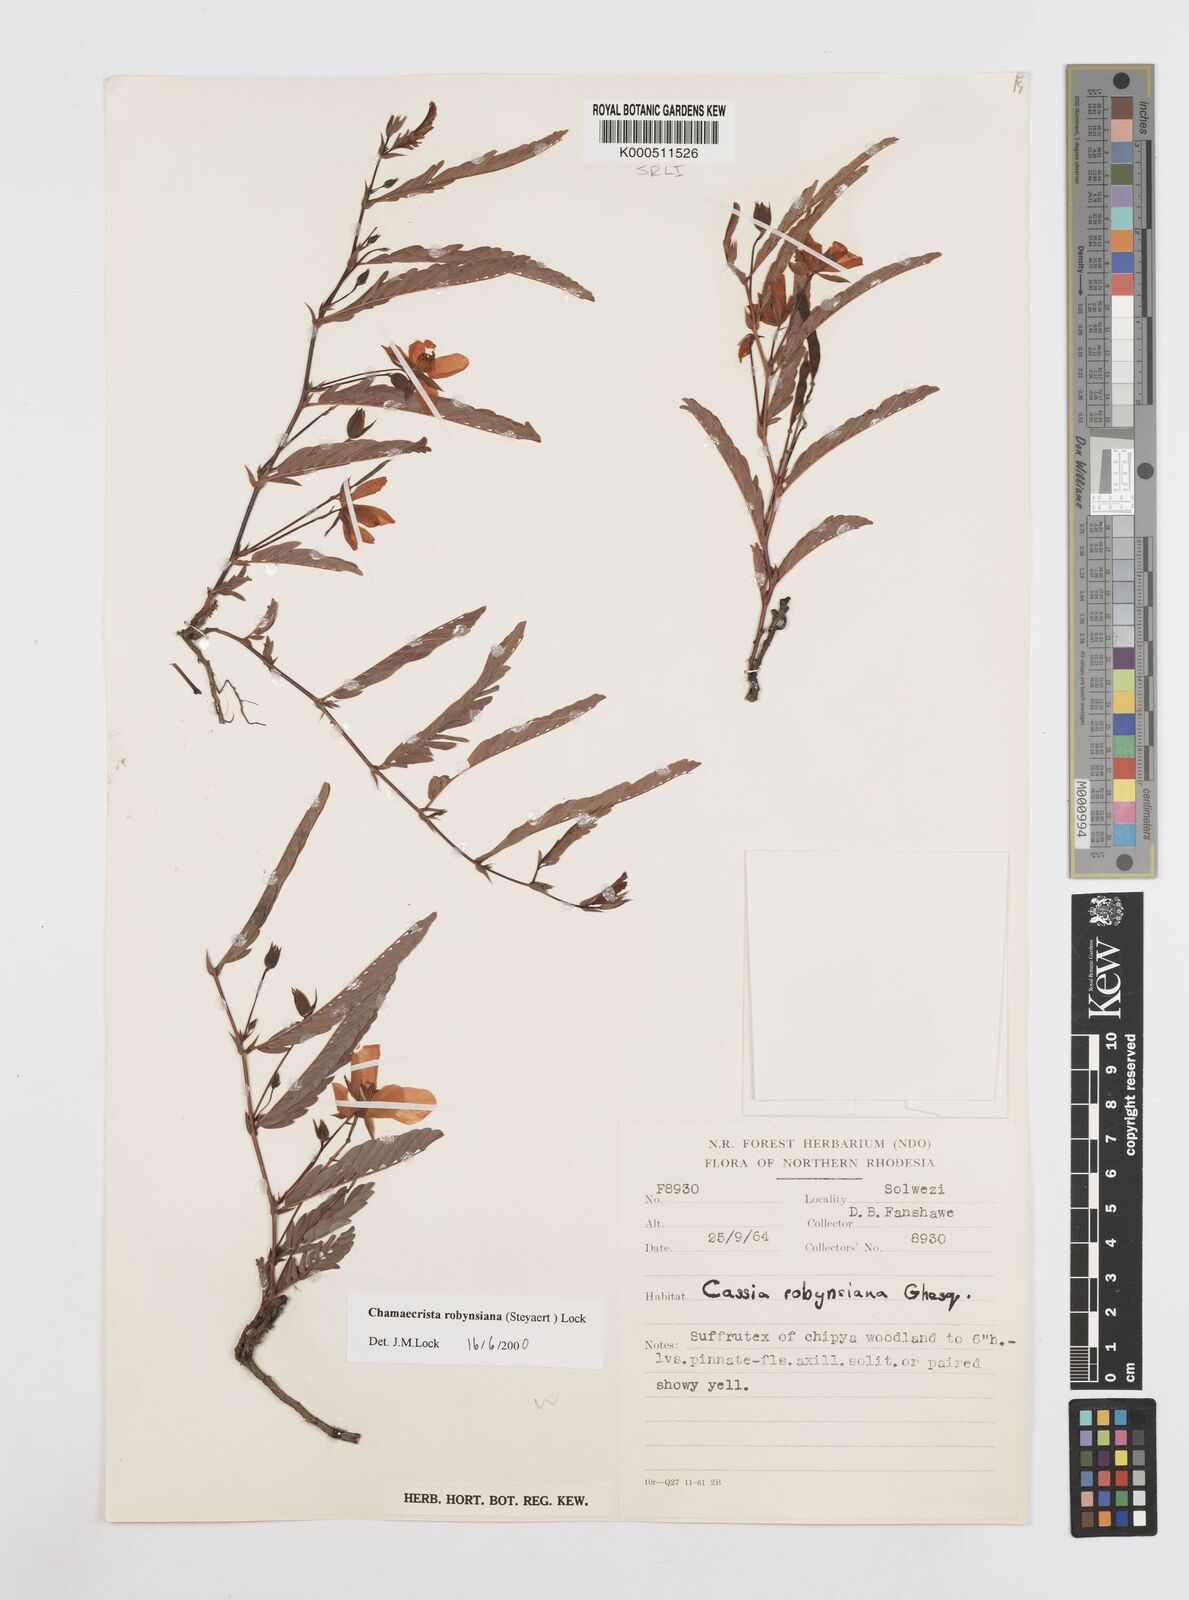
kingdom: Plantae
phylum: Tracheophyta
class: Magnoliopsida
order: Fabales
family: Fabaceae
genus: Chamaecrista
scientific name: Chamaecrista robynsiana
